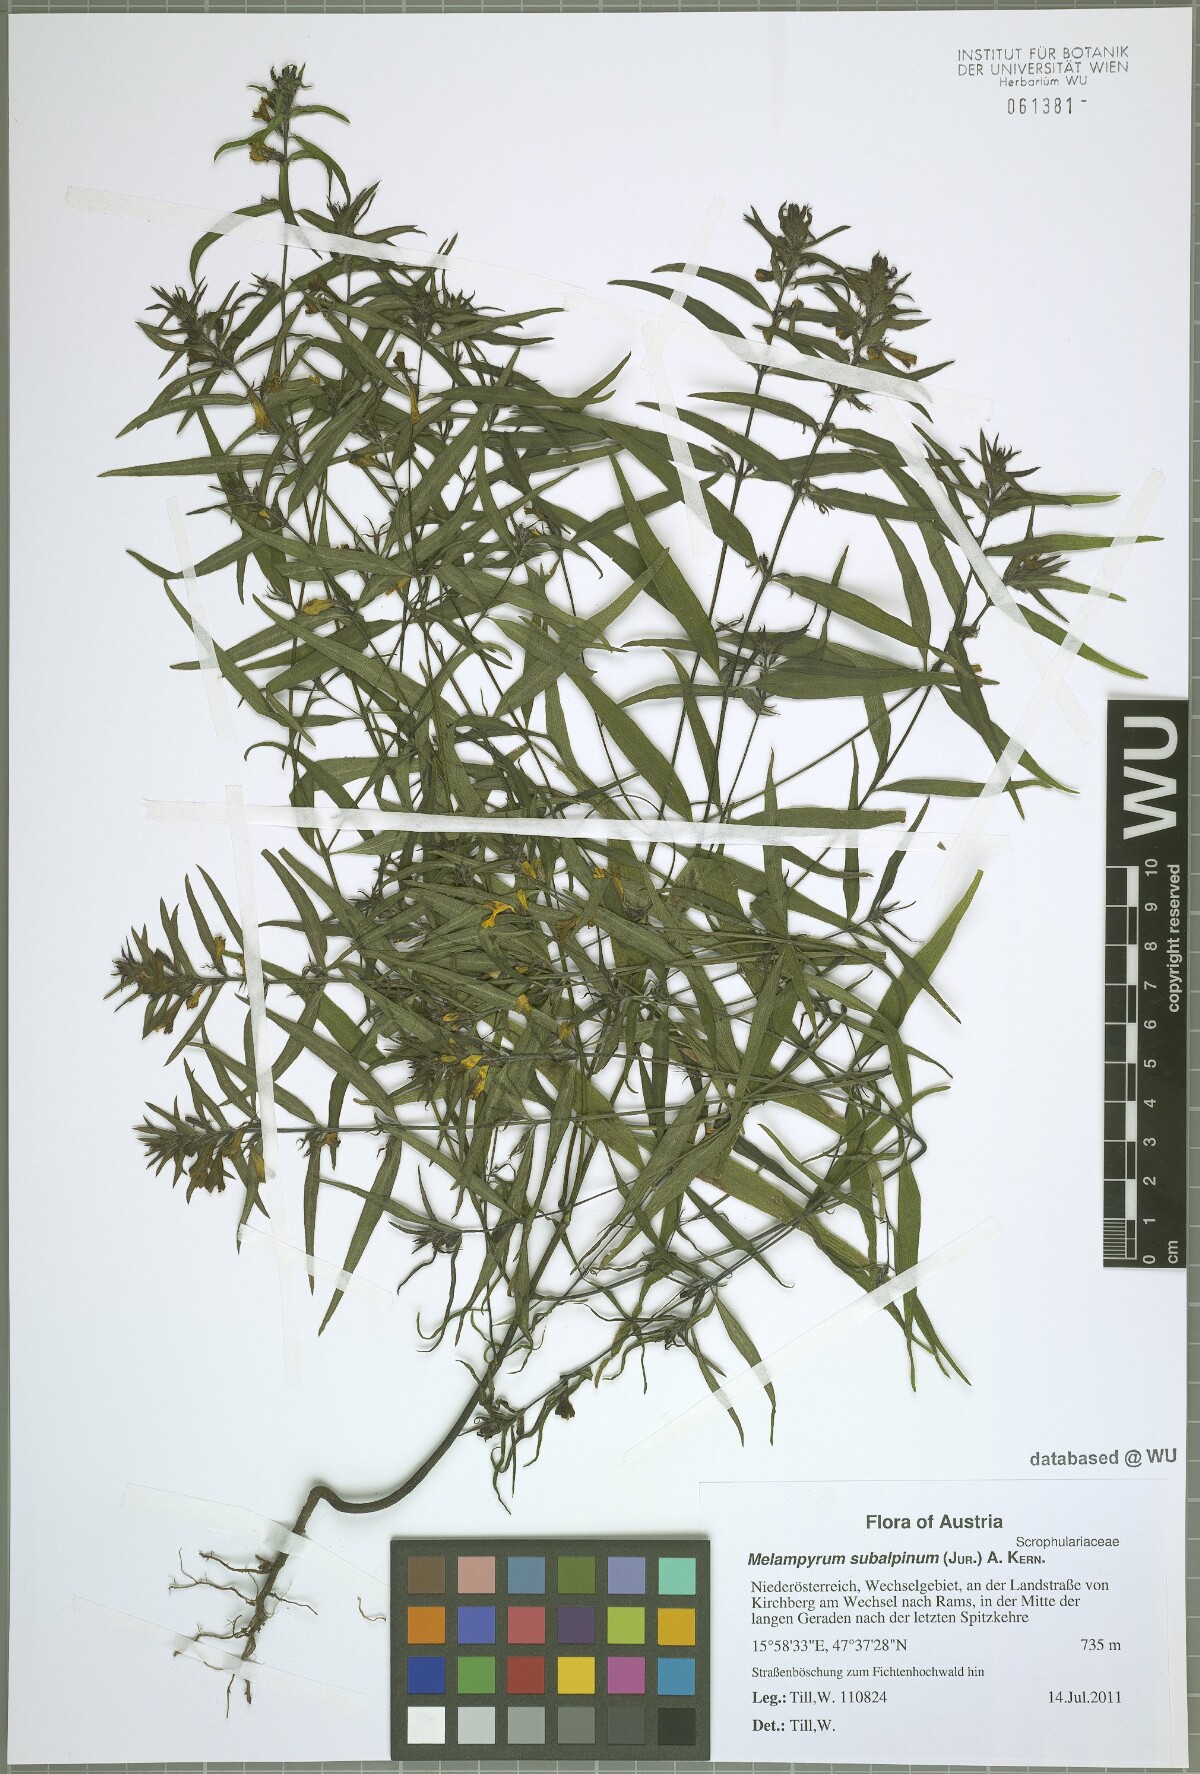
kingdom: Plantae
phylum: Tracheophyta
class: Magnoliopsida
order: Lamiales
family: Orobanchaceae
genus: Melampyrum
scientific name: Melampyrum subalpinum
